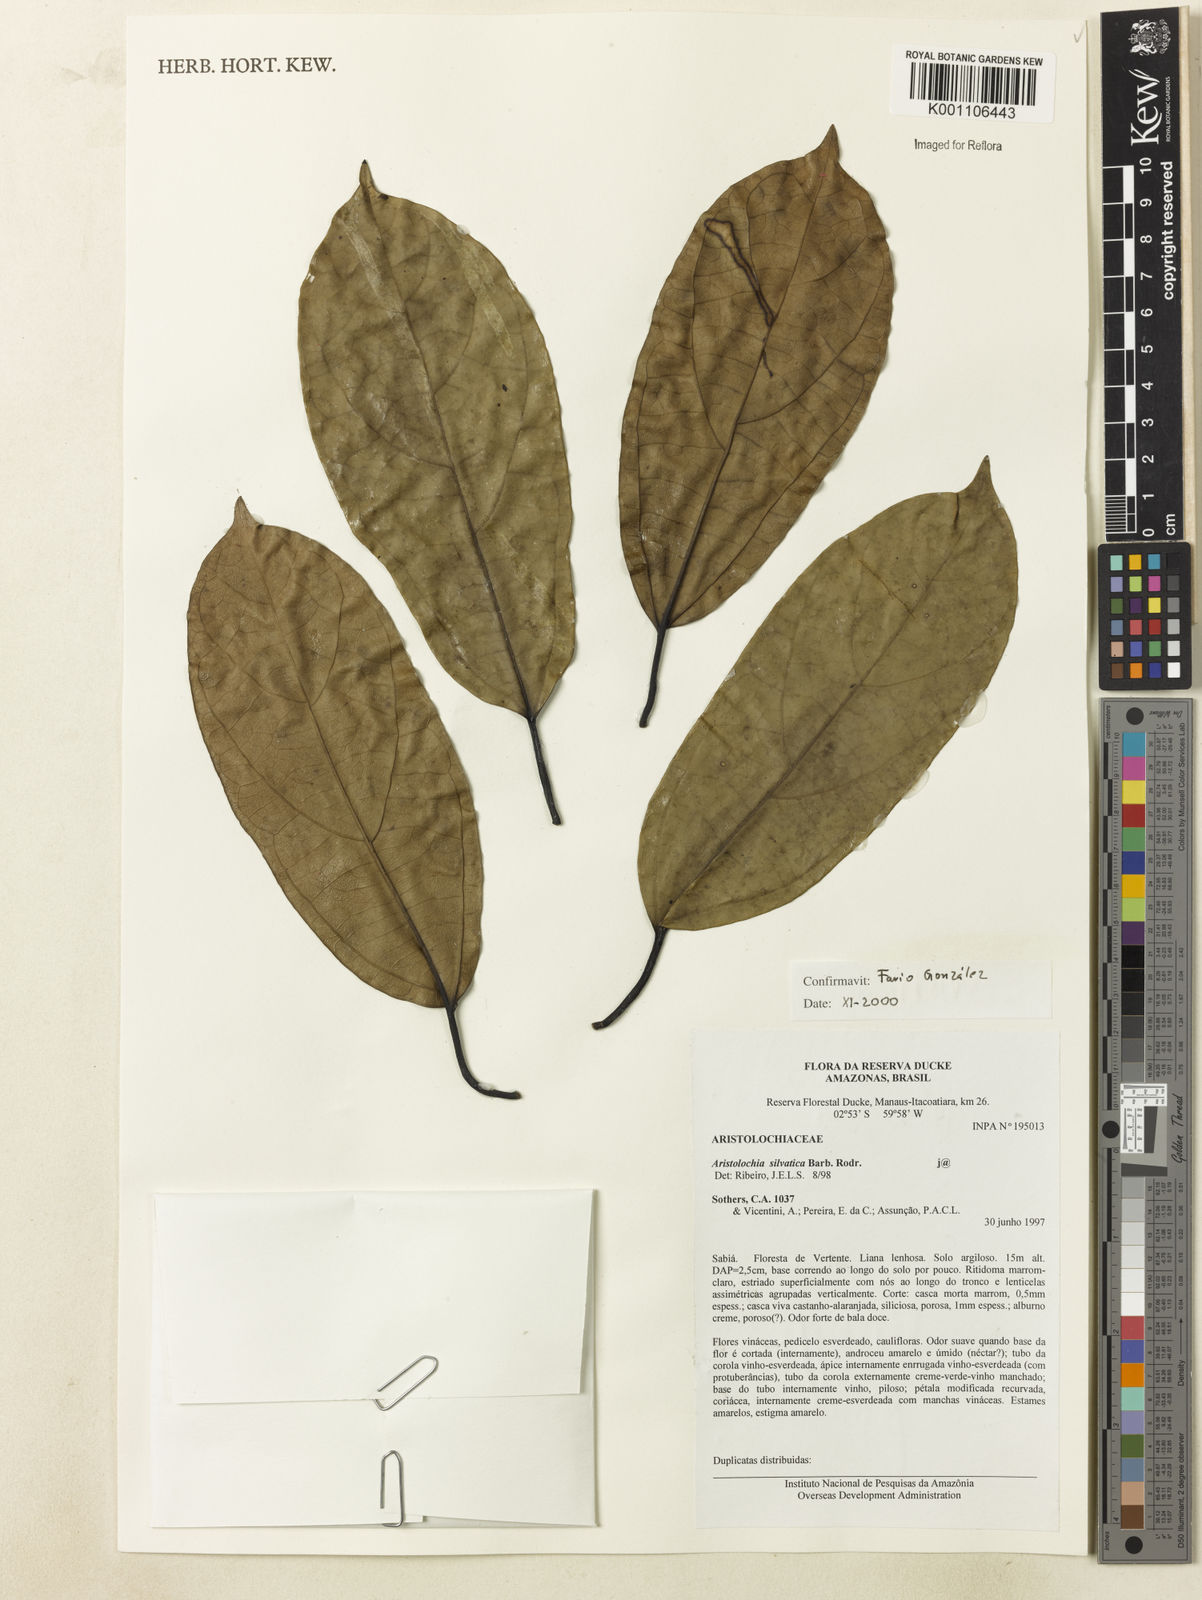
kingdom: Plantae
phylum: Tracheophyta
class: Magnoliopsida
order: Piperales
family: Aristolochiaceae
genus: Aristolochia
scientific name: Aristolochia silvatica
